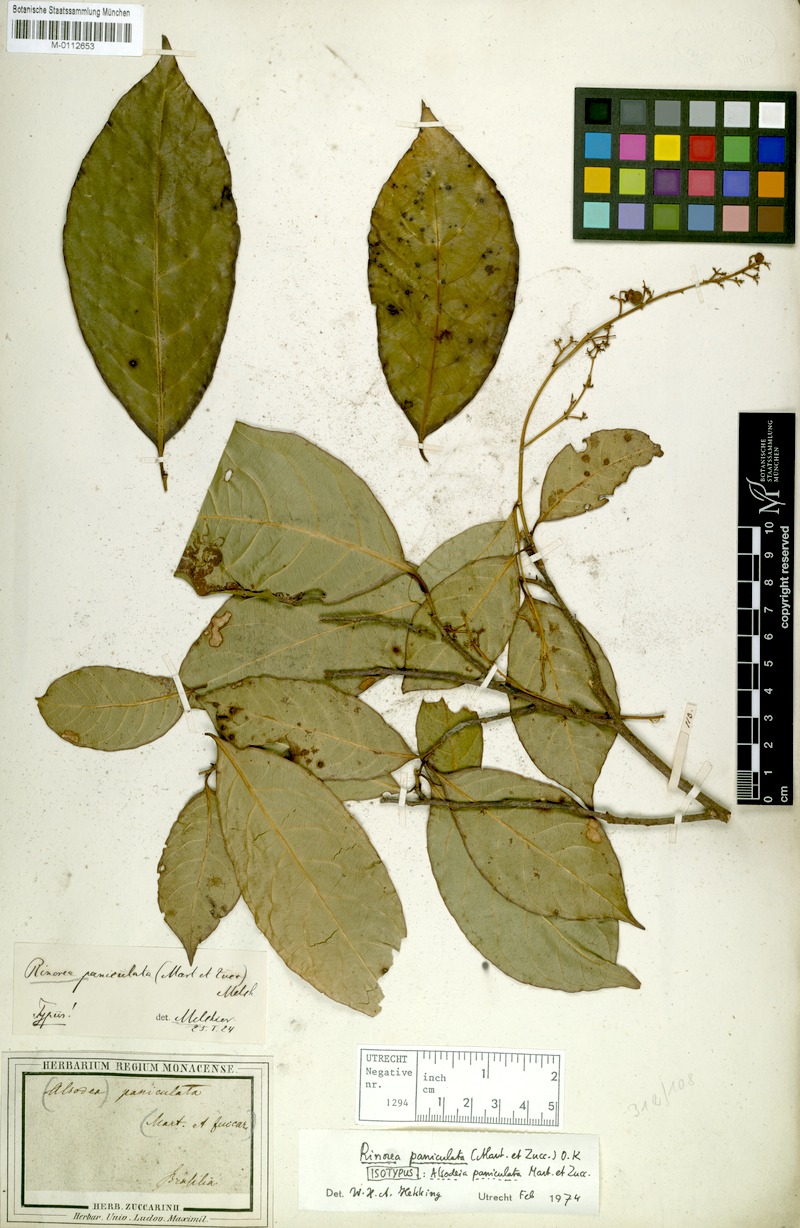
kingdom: Plantae
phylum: Tracheophyta
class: Magnoliopsida
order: Malpighiales
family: Violaceae
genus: Rinorea
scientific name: Rinorea paniculata
